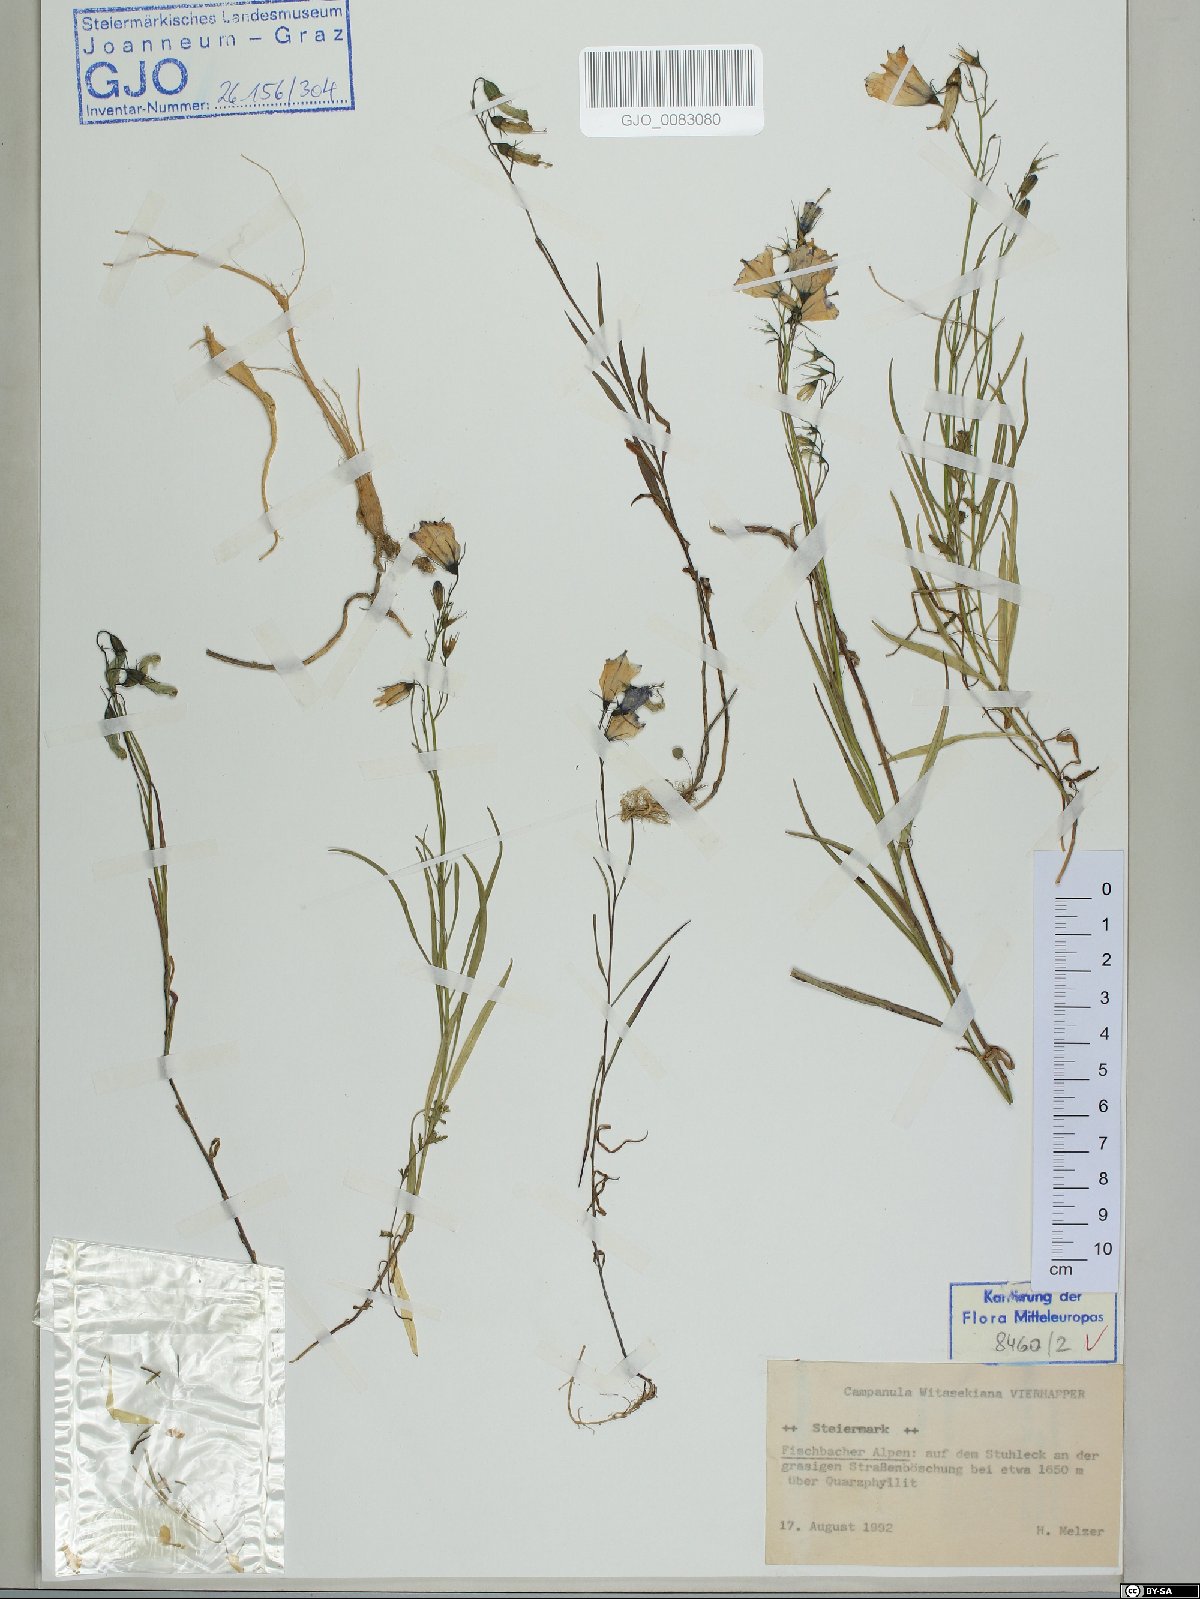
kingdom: Plantae
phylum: Tracheophyta
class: Magnoliopsida
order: Asterales
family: Campanulaceae
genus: Campanula
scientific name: Campanula witasekiana
